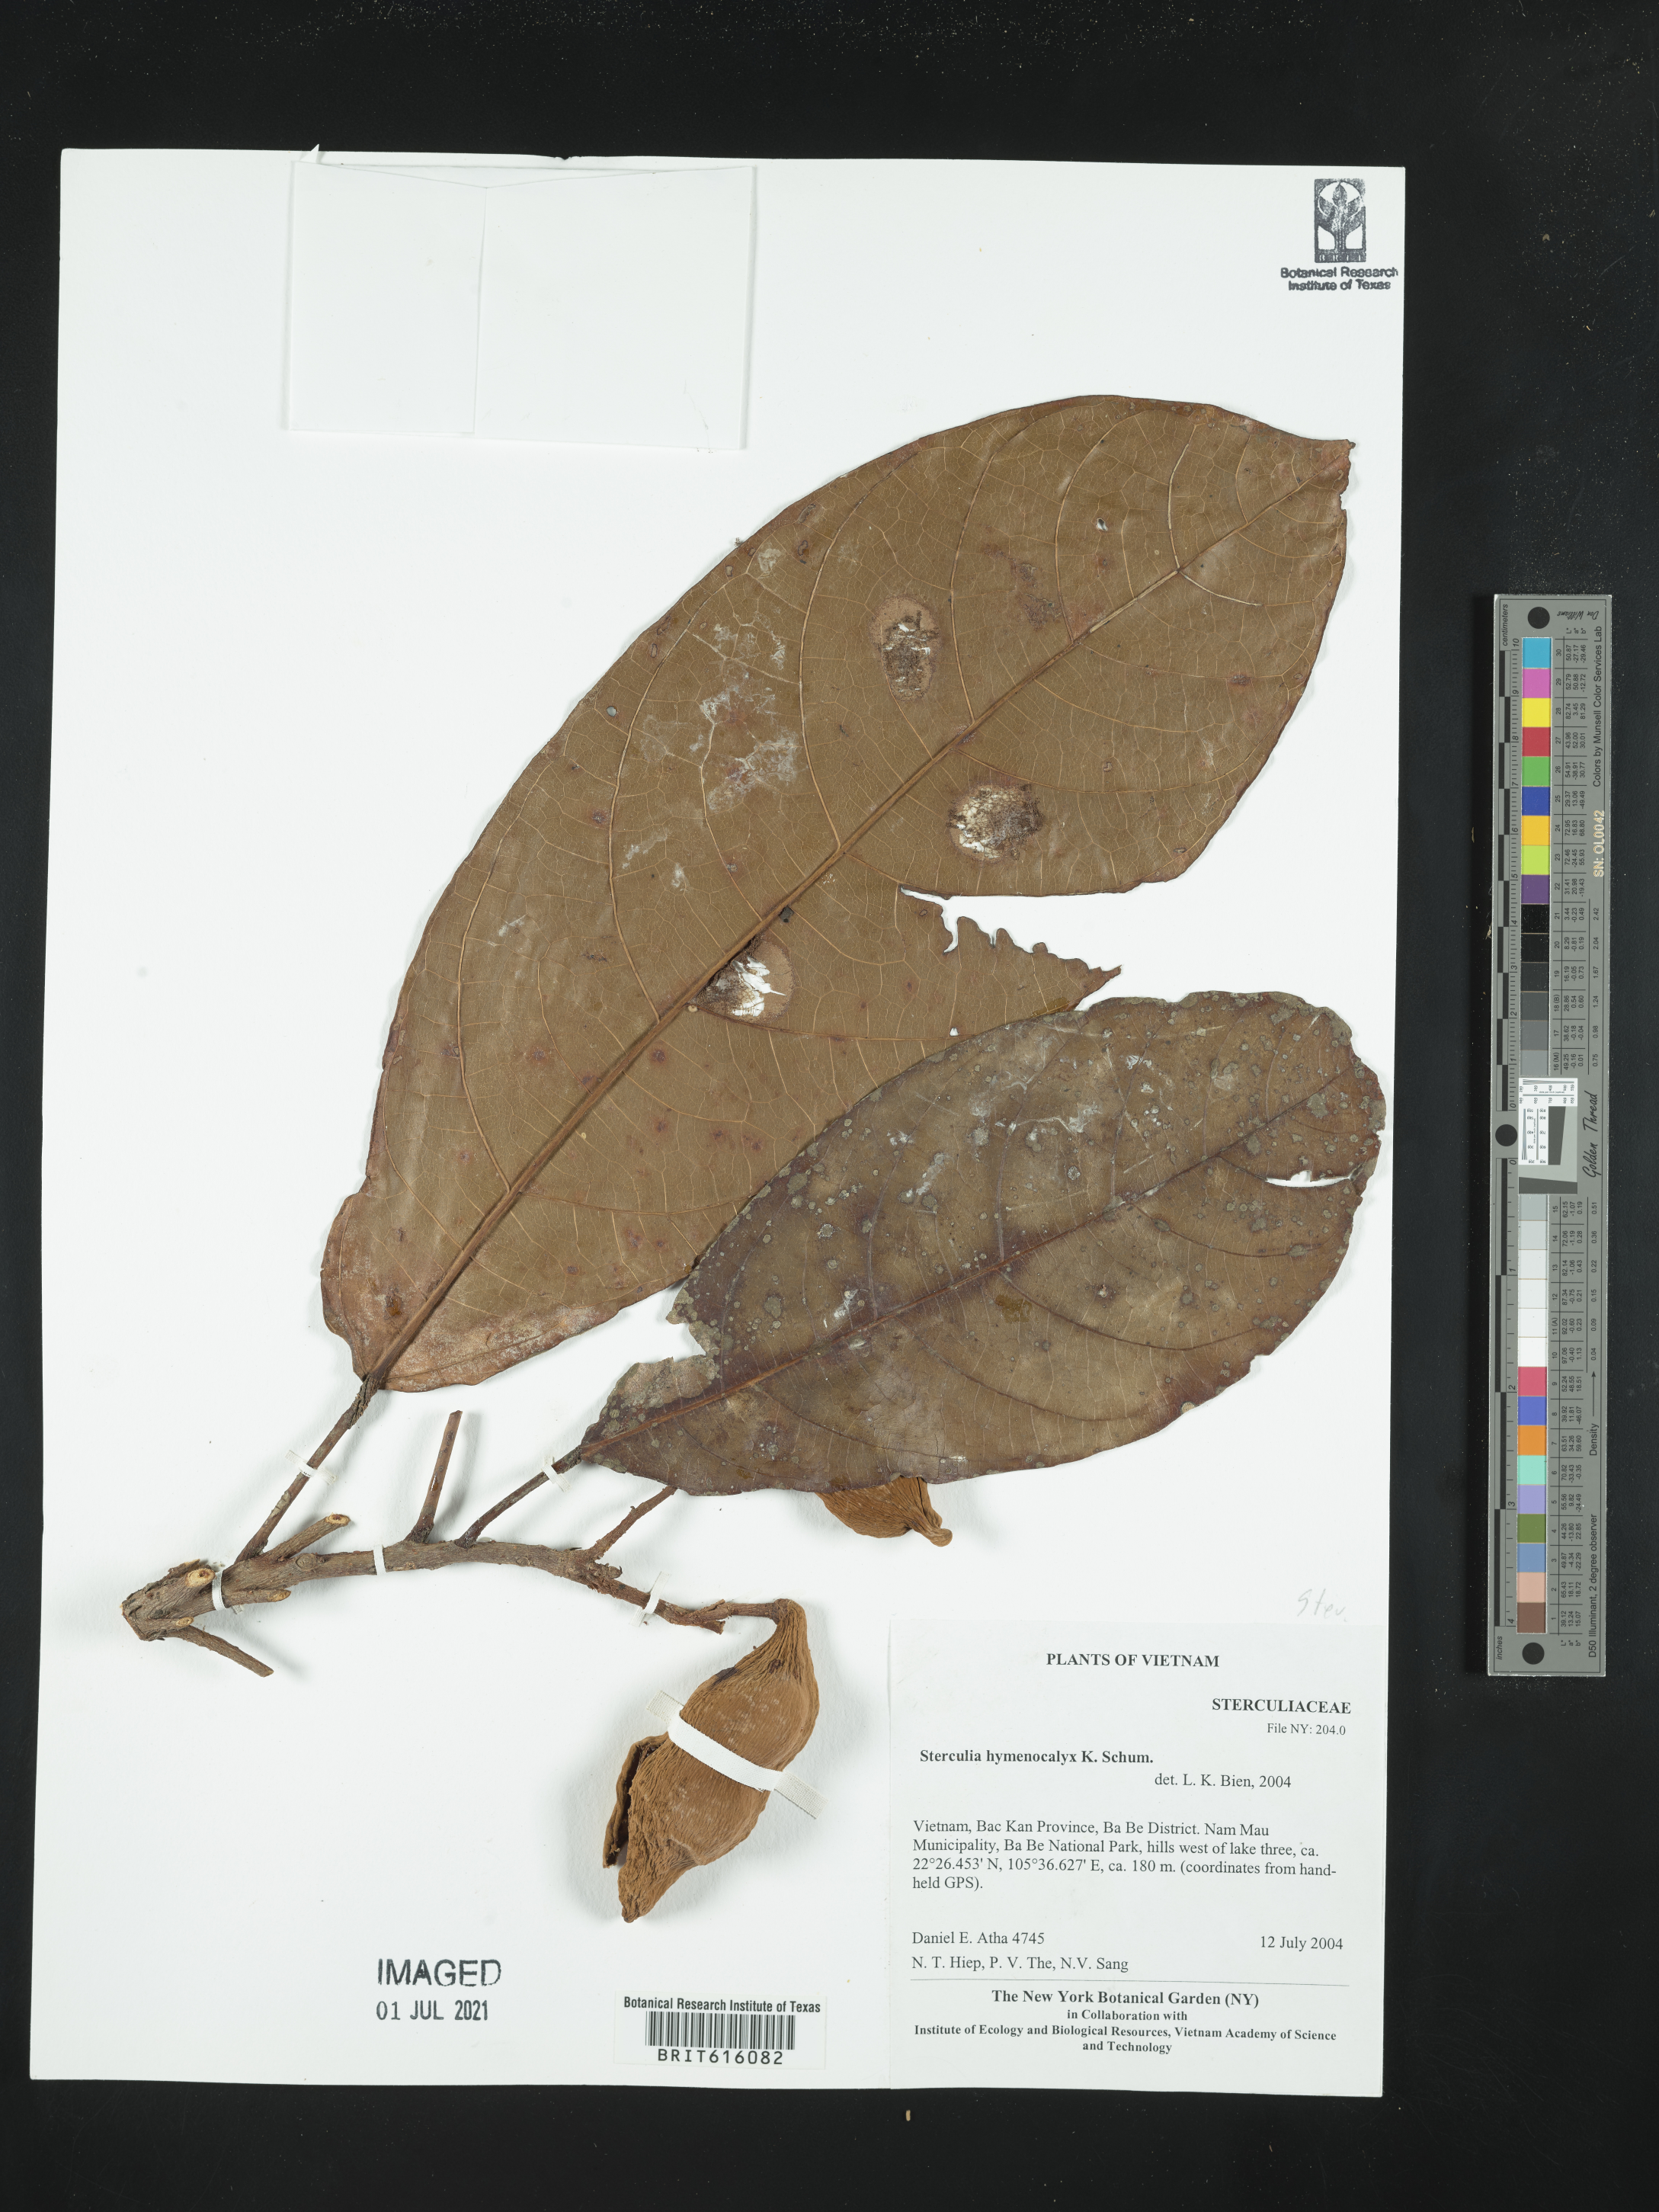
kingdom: Plantae
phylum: Tracheophyta
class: Magnoliopsida
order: Malvales
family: Malvaceae
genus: Sterculia
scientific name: Sterculia hymenocalyx
